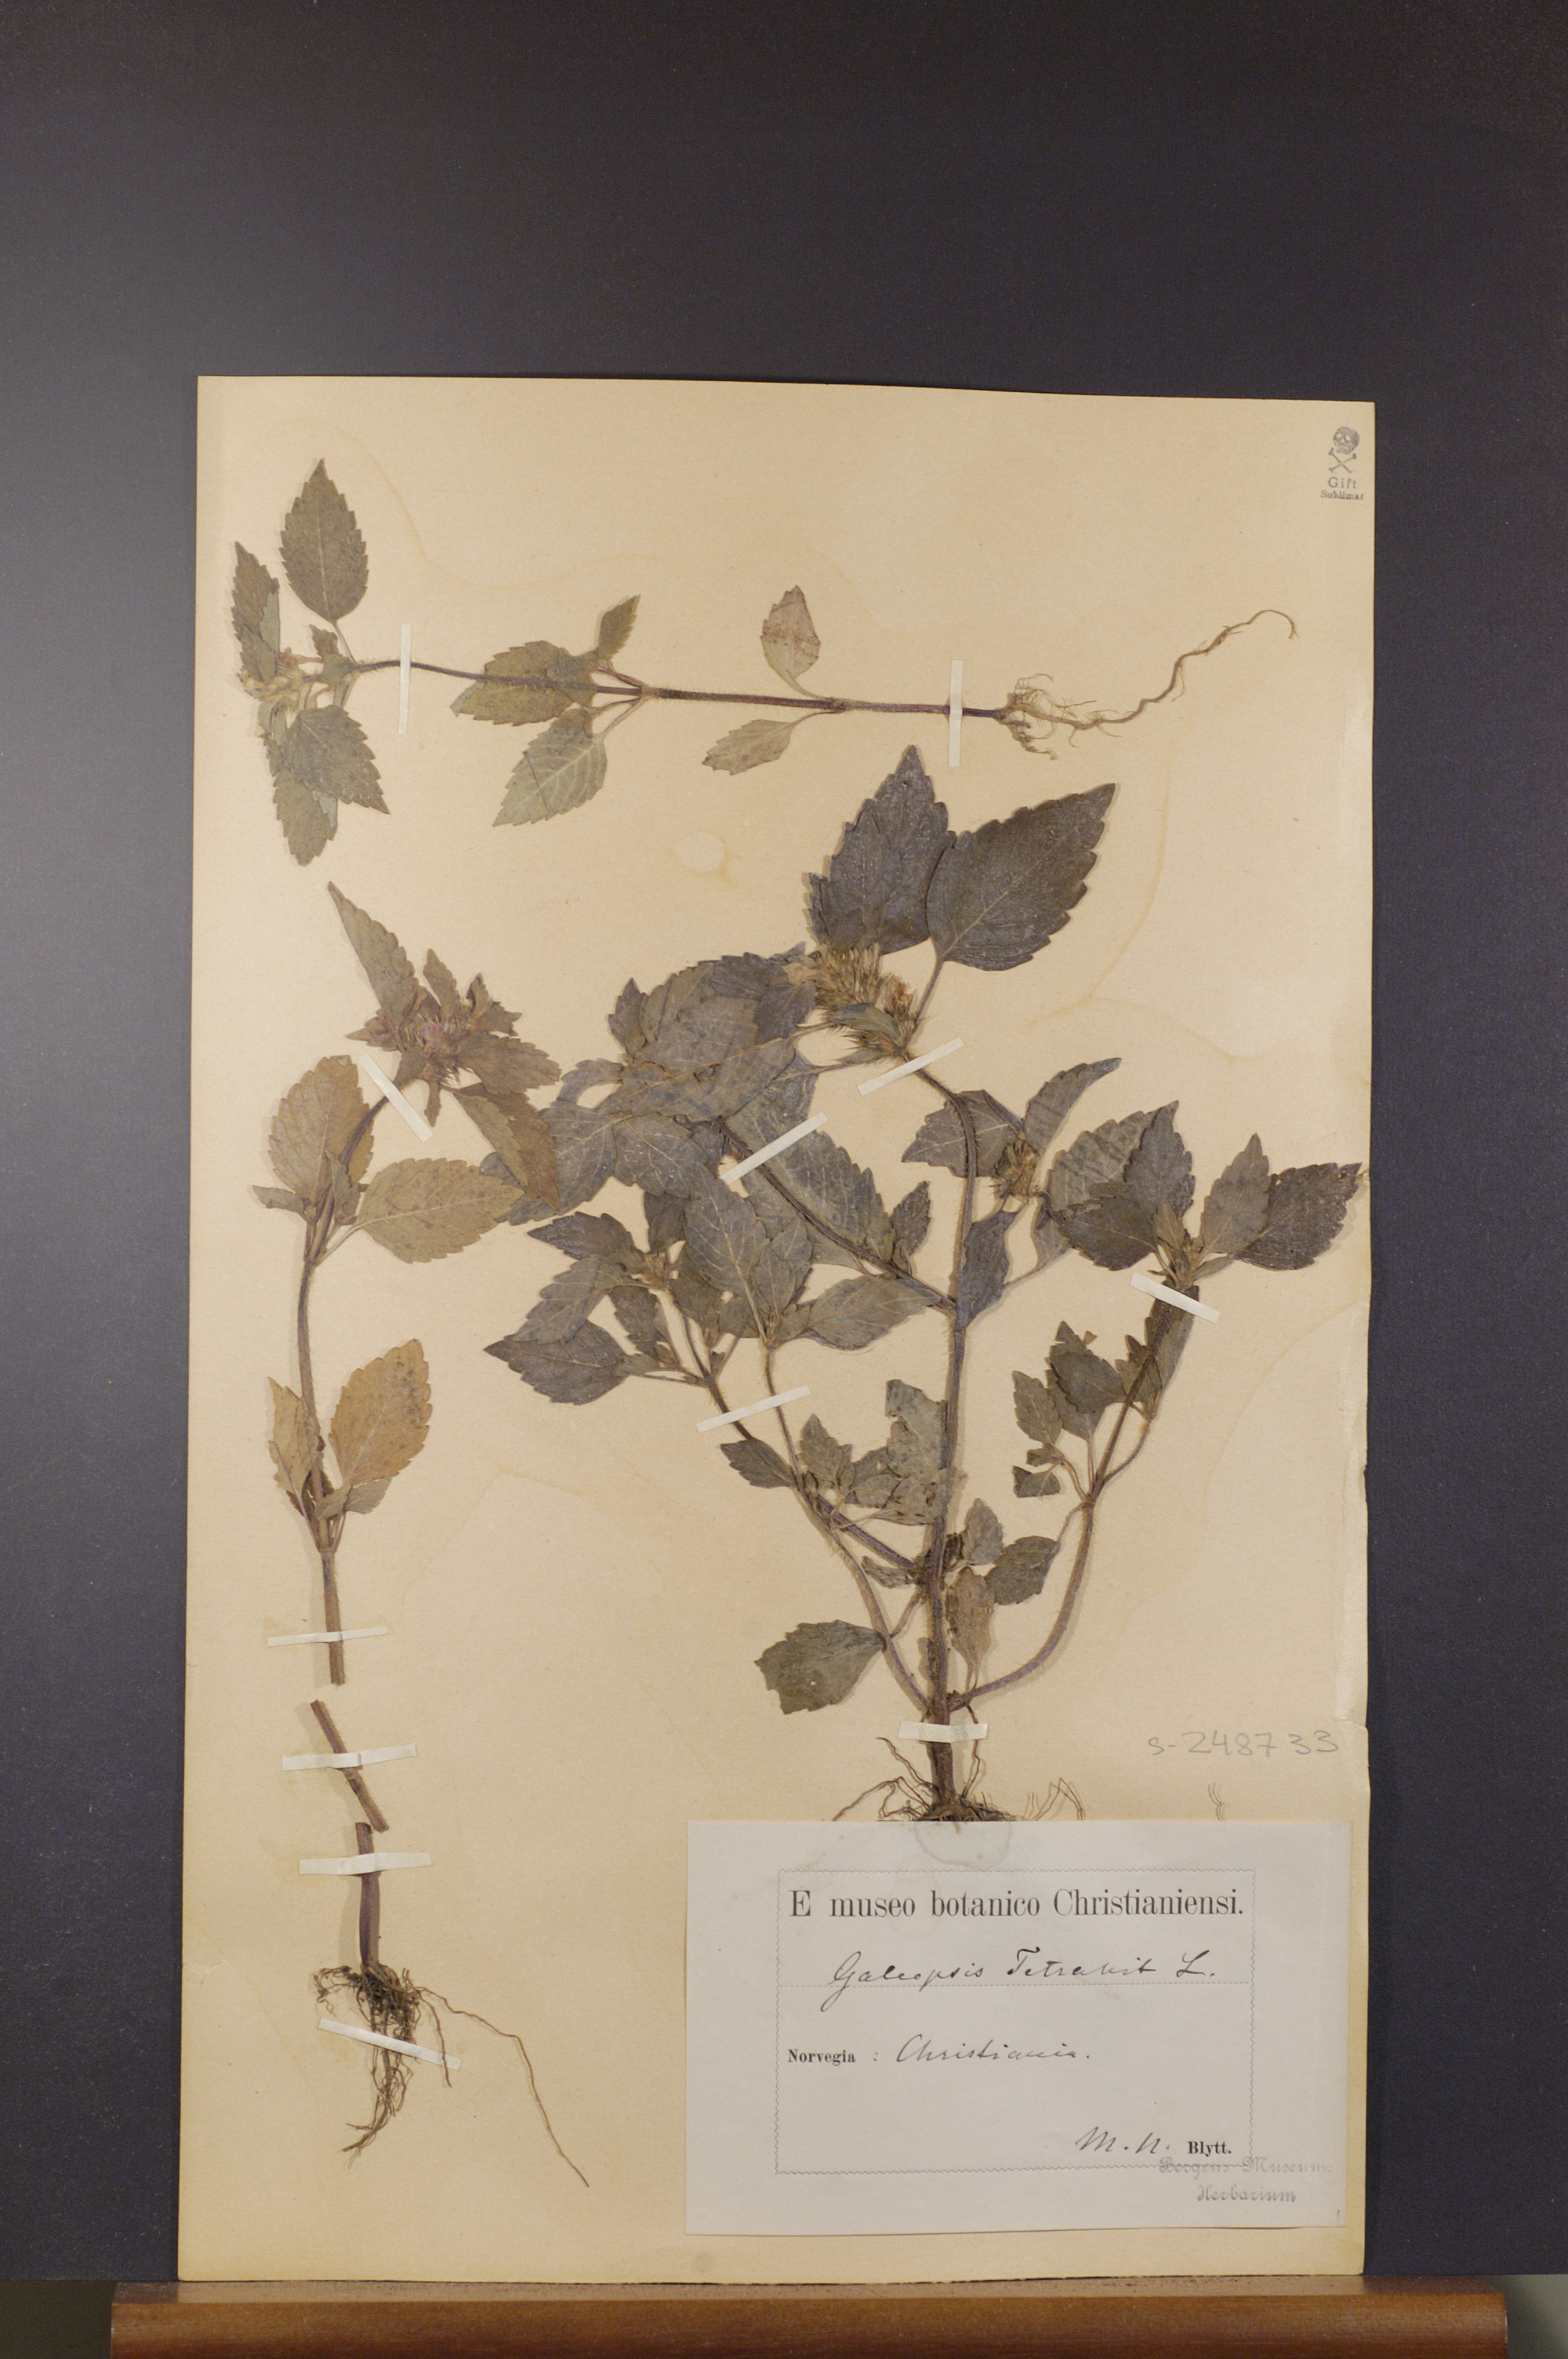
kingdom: Plantae
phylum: Tracheophyta
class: Magnoliopsida
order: Lamiales
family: Lamiaceae
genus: Galeopsis
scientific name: Galeopsis tetrahit
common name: Common hemp-nettle
